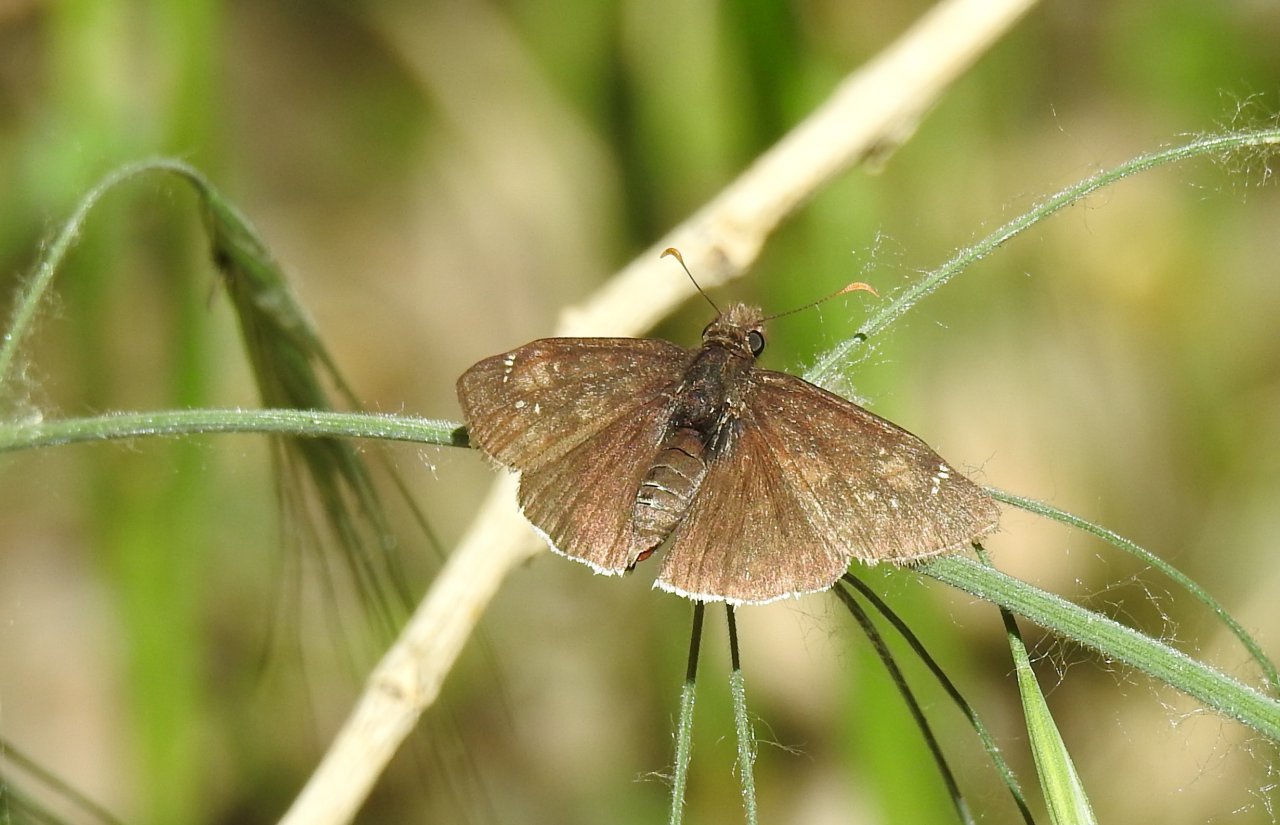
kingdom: Animalia
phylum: Arthropoda
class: Insecta
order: Lepidoptera
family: Hesperiidae
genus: Erynnis
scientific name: Erynnis funeralis
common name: Funereal Duskywing
